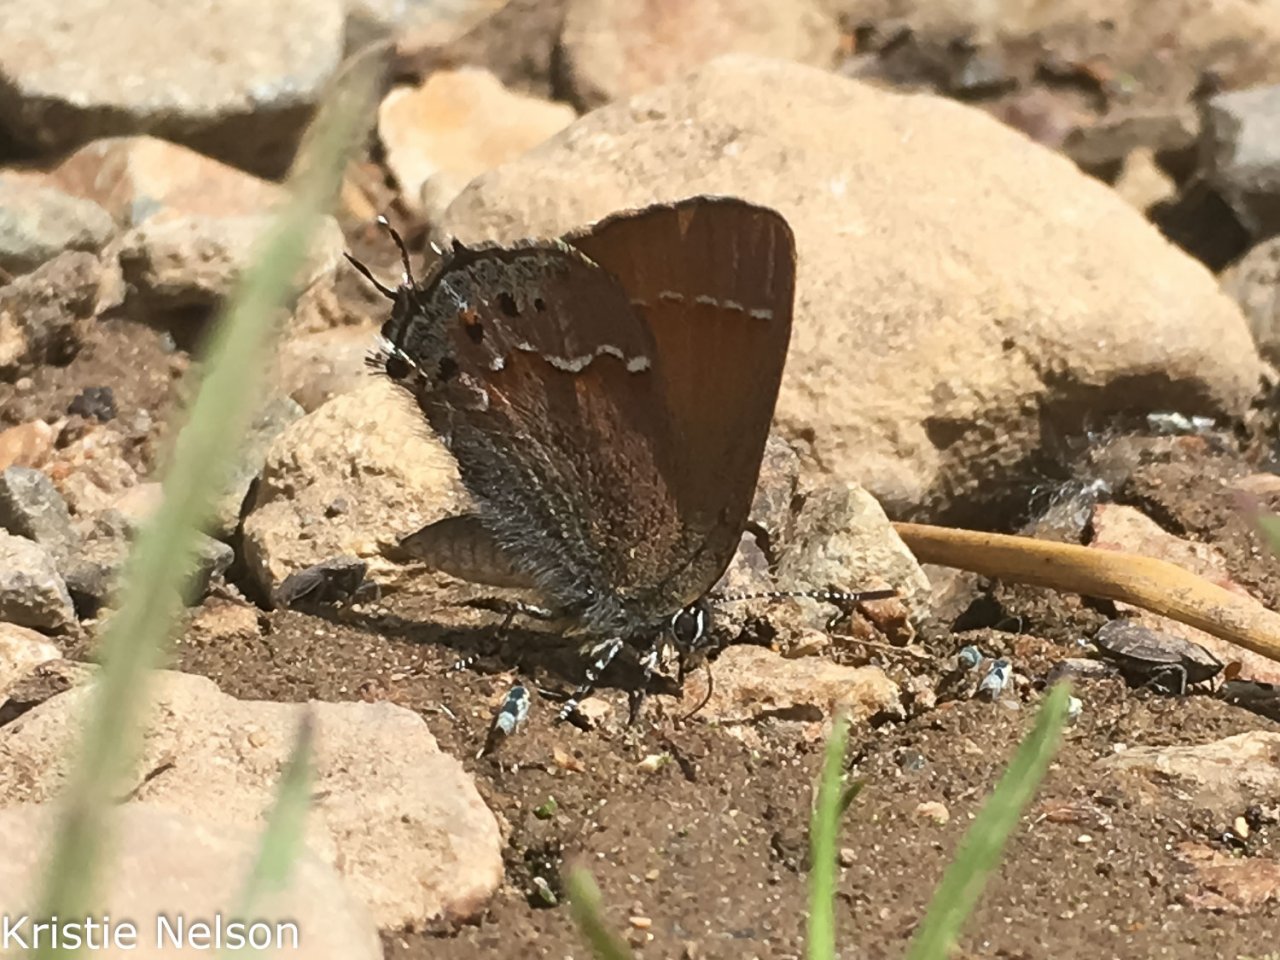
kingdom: Animalia
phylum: Arthropoda
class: Insecta
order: Lepidoptera
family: Lycaenidae
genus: Mitoura
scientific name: Mitoura gryneus
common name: Juniper Hairstreak
